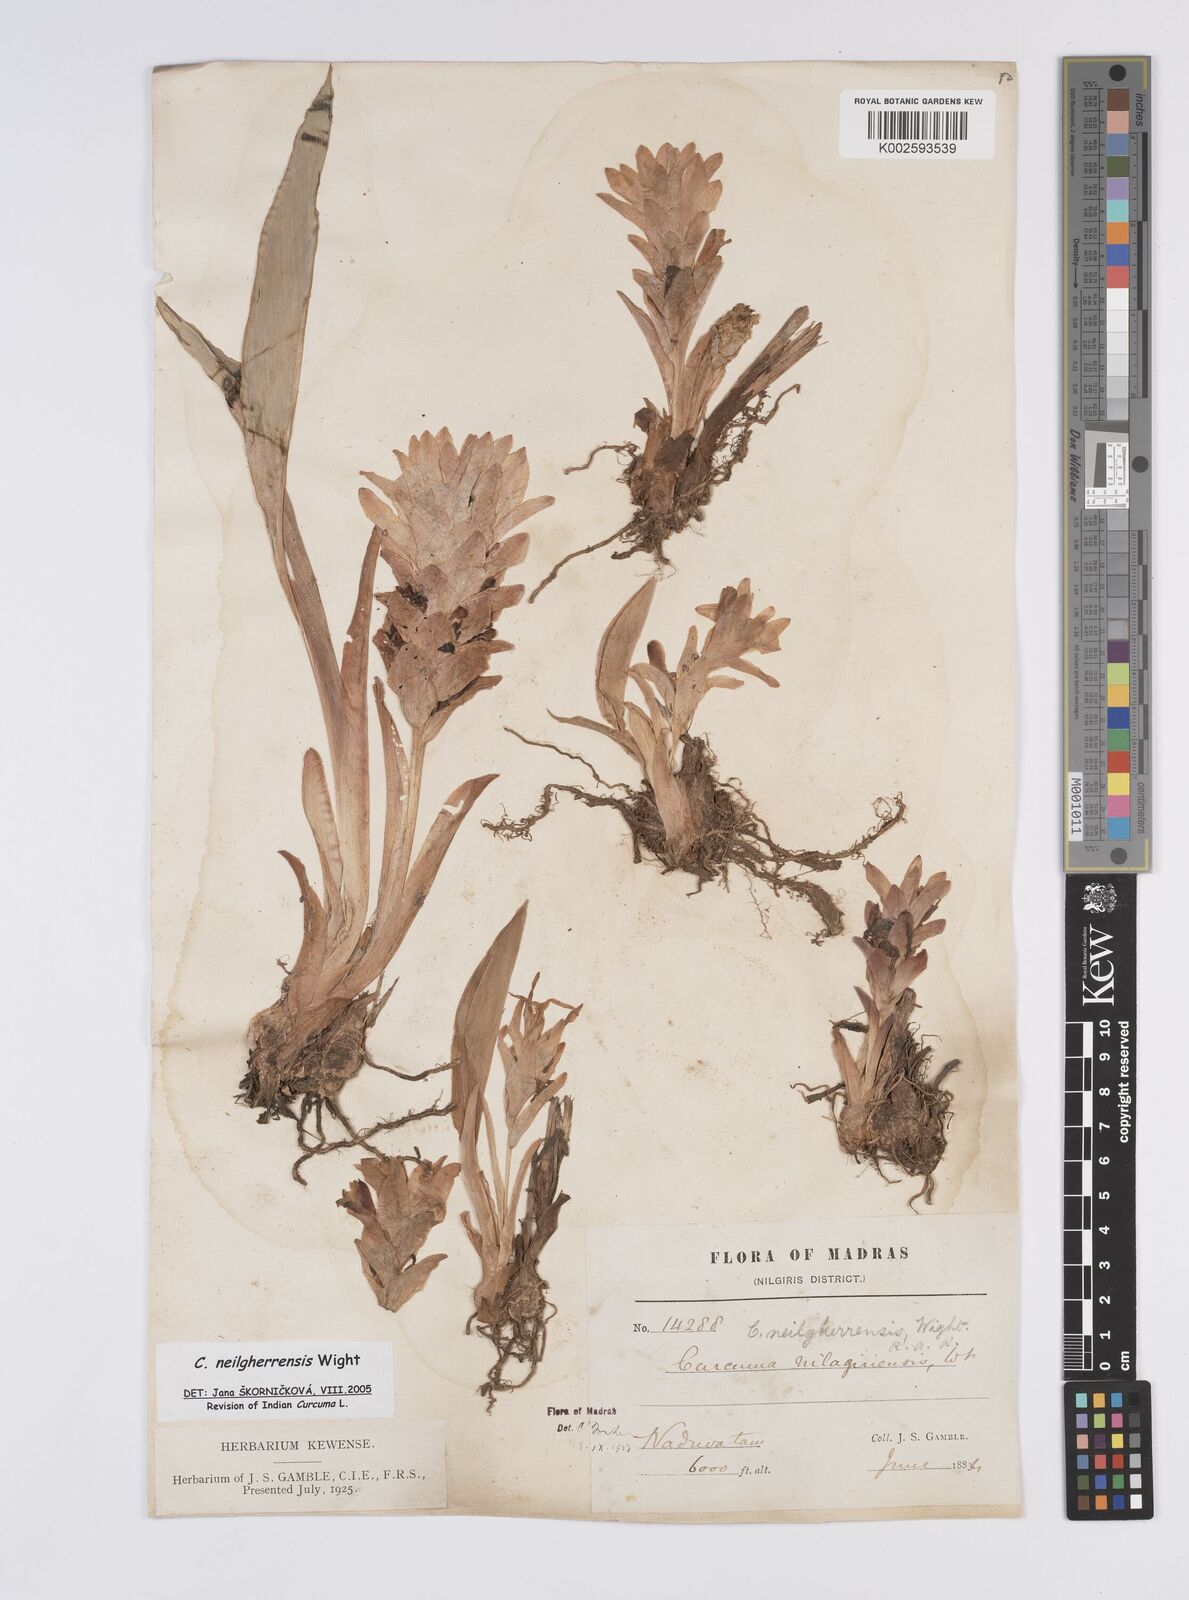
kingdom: Plantae
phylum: Tracheophyta
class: Liliopsida
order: Zingiberales
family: Zingiberaceae
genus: Curcuma
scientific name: Curcuma neilgherrensis
